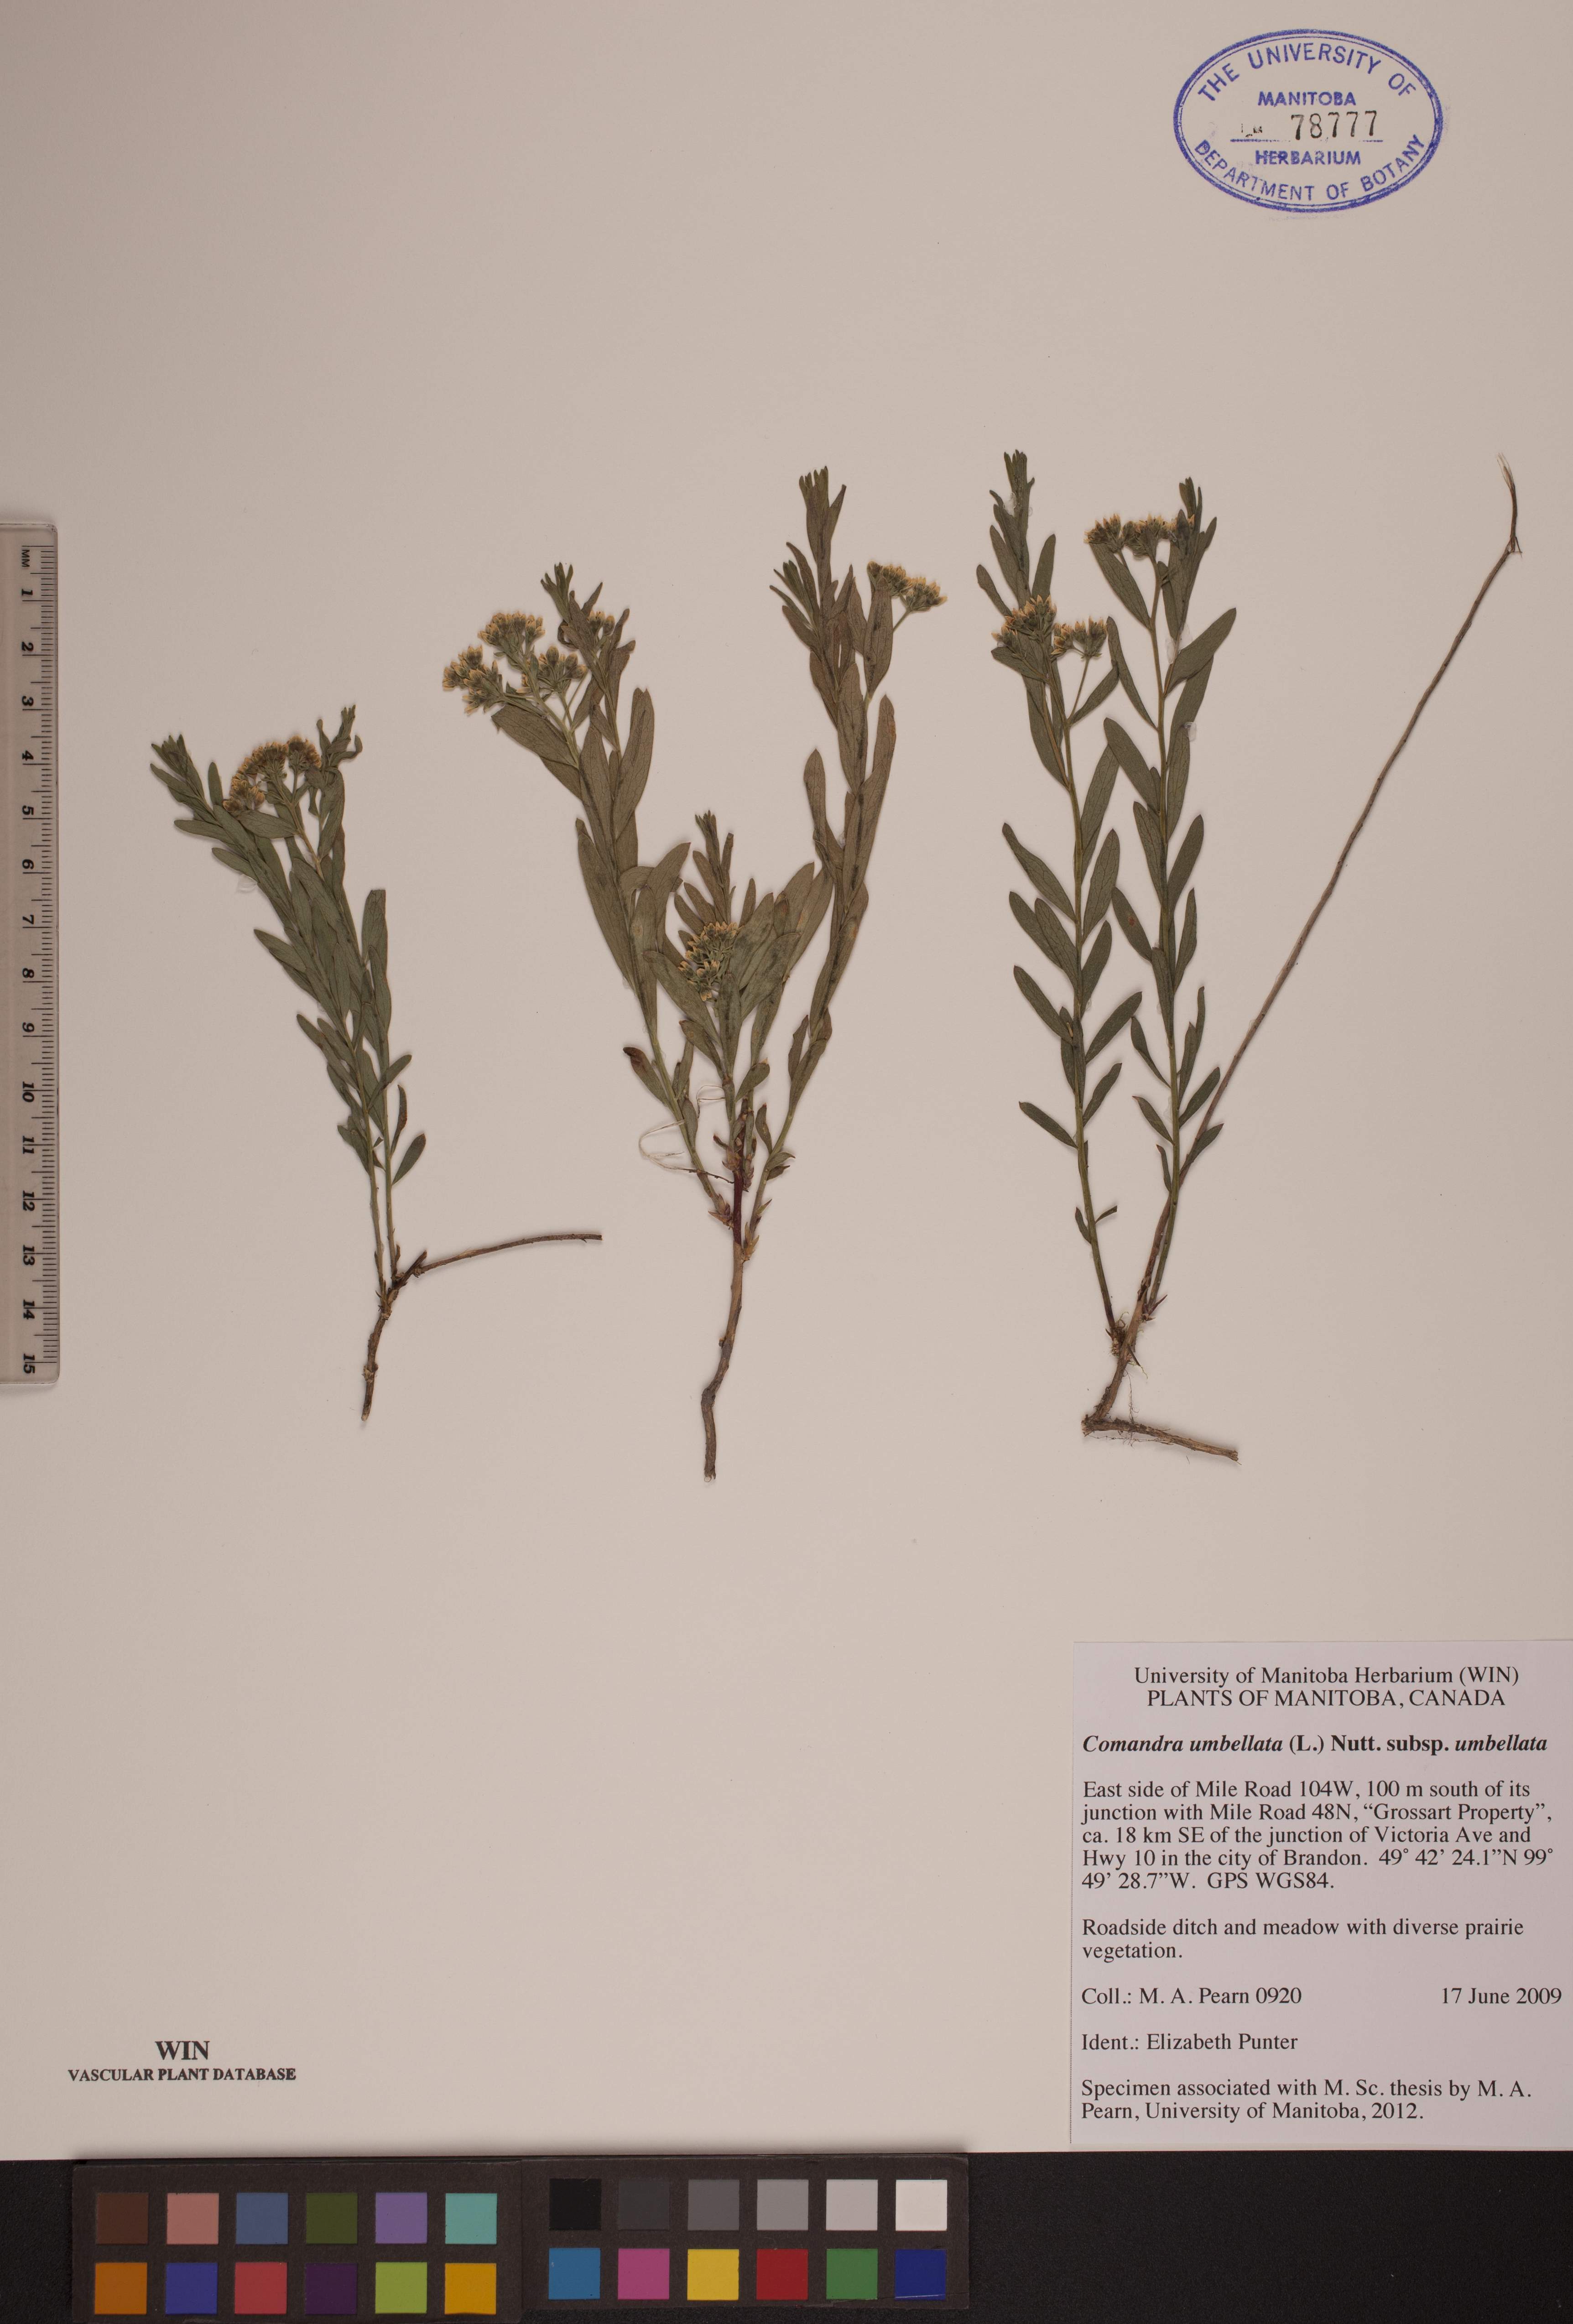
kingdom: Plantae
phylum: Tracheophyta
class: Magnoliopsida
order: Santalales
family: Comandraceae
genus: Comandra
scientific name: Comandra umbellata
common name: Bastard toadflax
